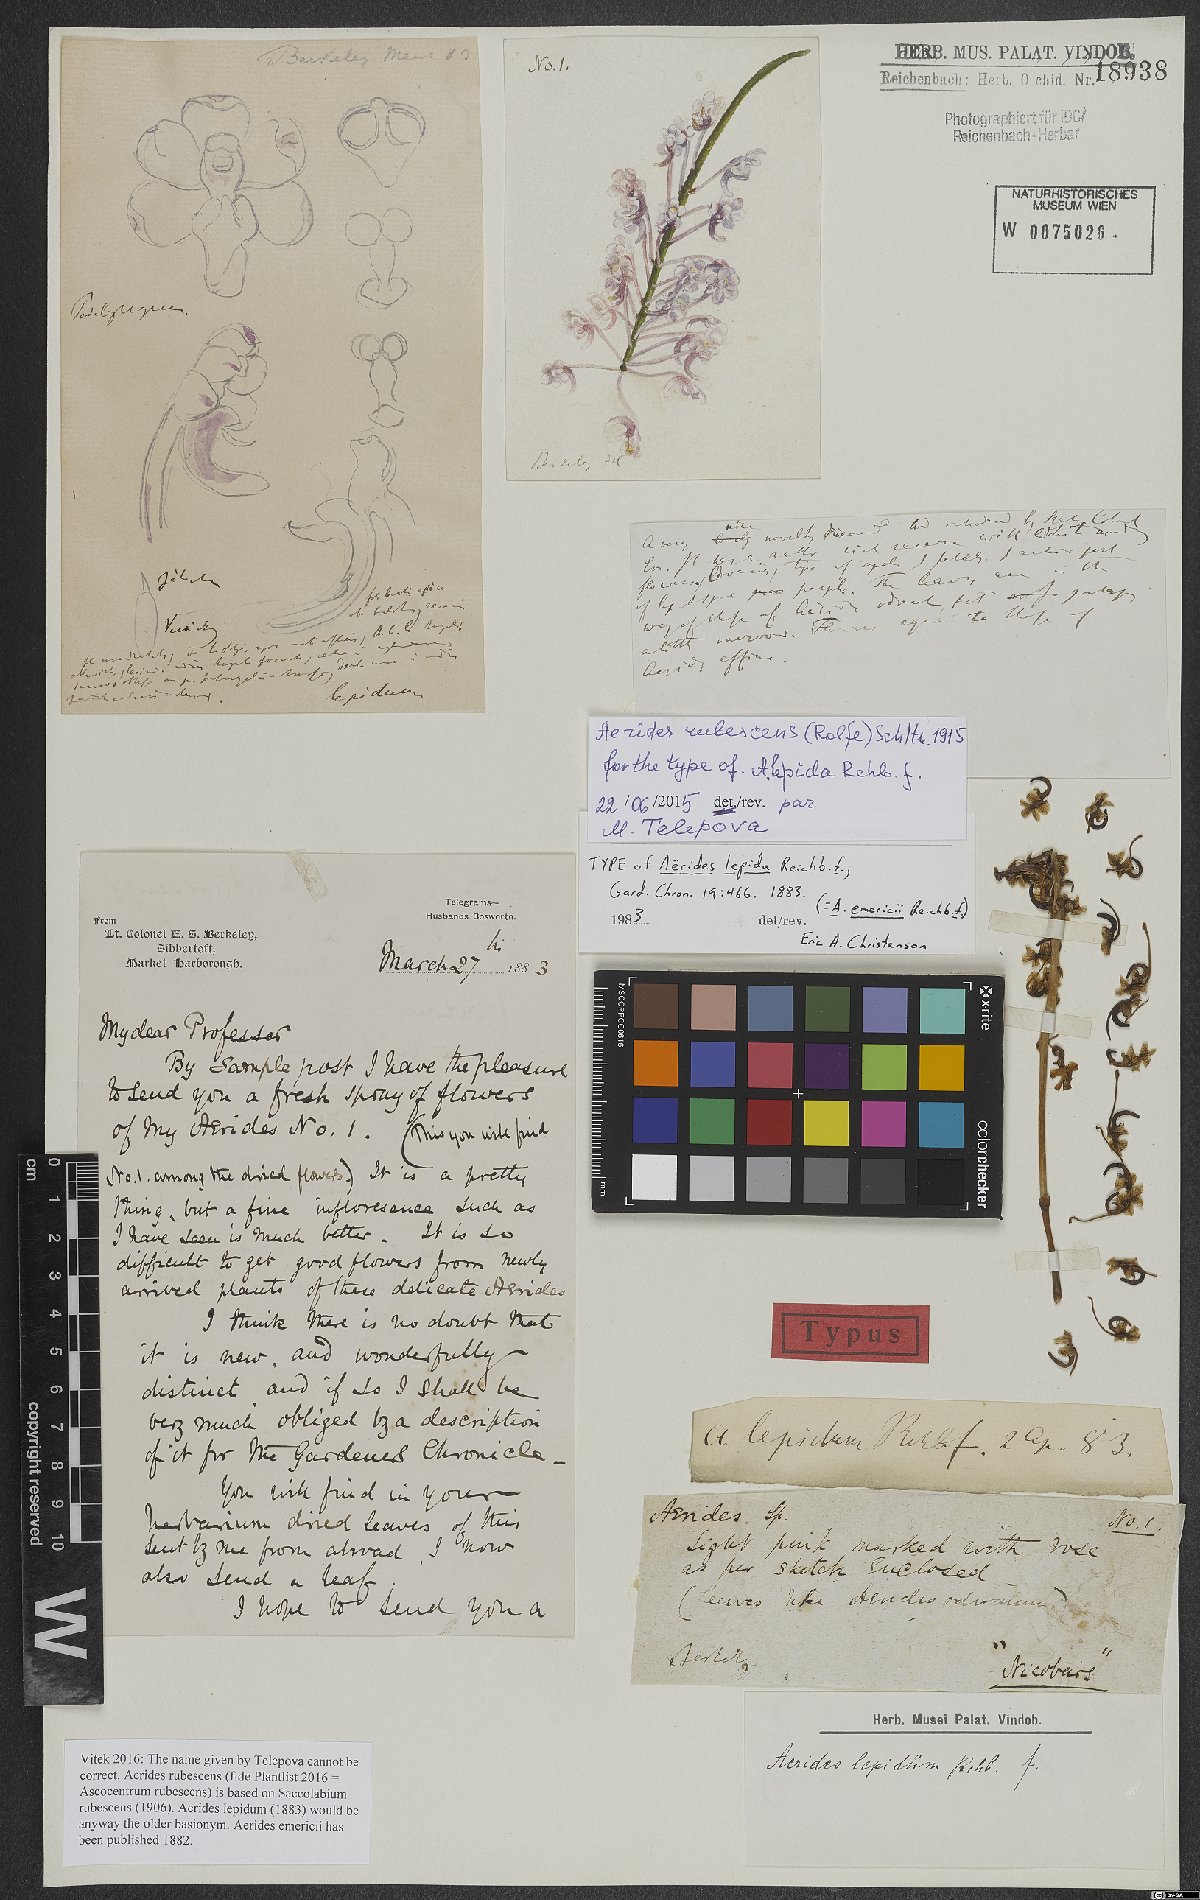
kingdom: Plantae
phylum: Tracheophyta
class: Liliopsida
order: Asparagales
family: Orchidaceae
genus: Aerides
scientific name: Aerides emericii
